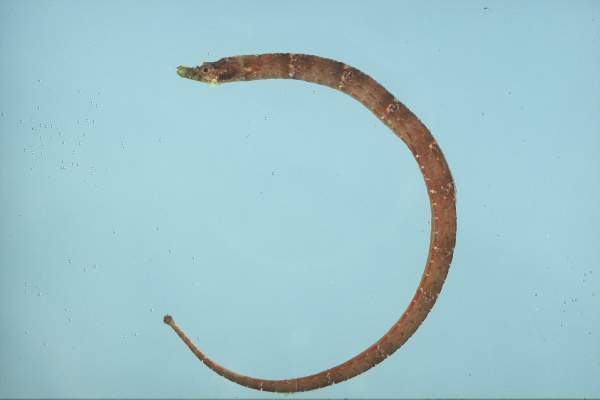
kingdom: Animalia
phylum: Chordata
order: Syngnathiformes
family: Syngnathidae
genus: Halicampus
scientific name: Halicampus mataafae
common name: Brown pipefish
